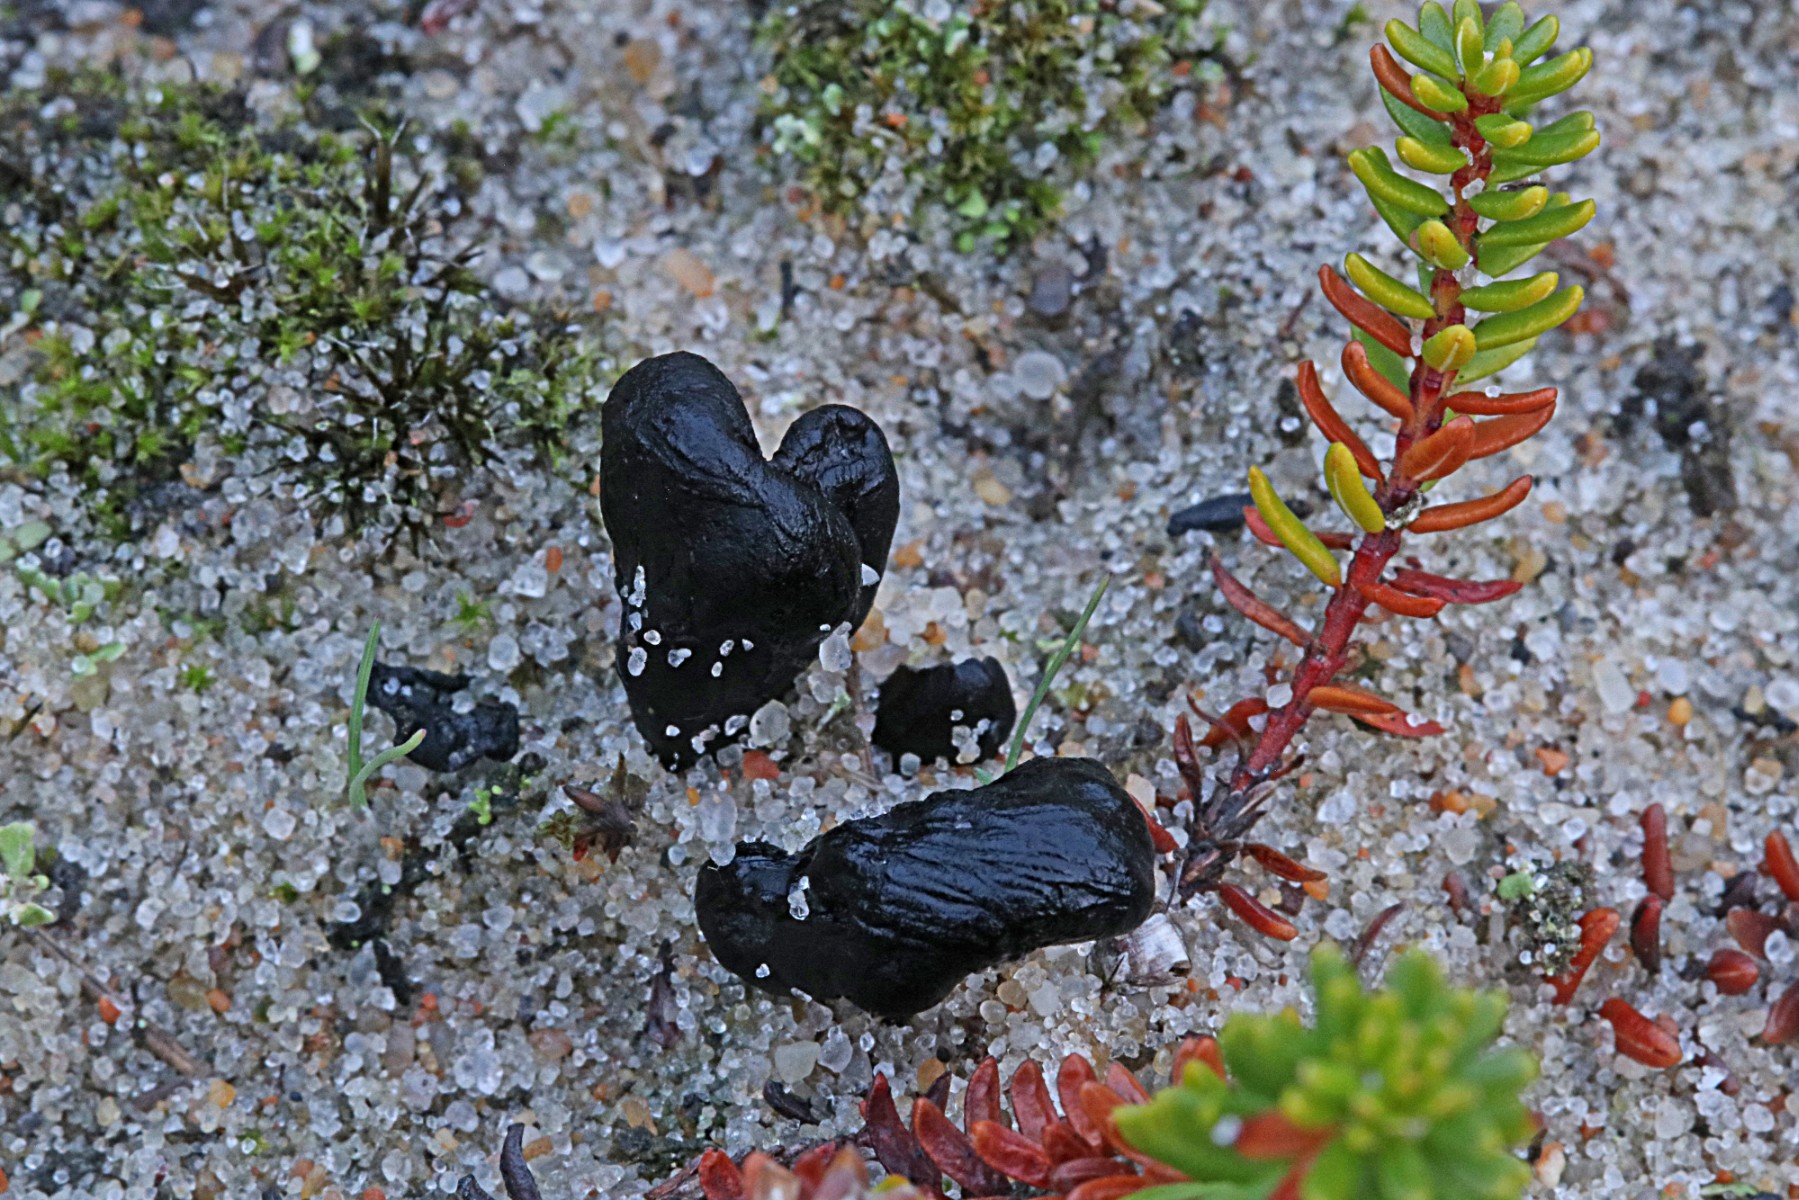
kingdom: Fungi
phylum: Ascomycota
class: Geoglossomycetes
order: Geoglossales
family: Geoglossaceae
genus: Sabuloglossum
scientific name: Sabuloglossum arenarium
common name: klit-jordtunge
